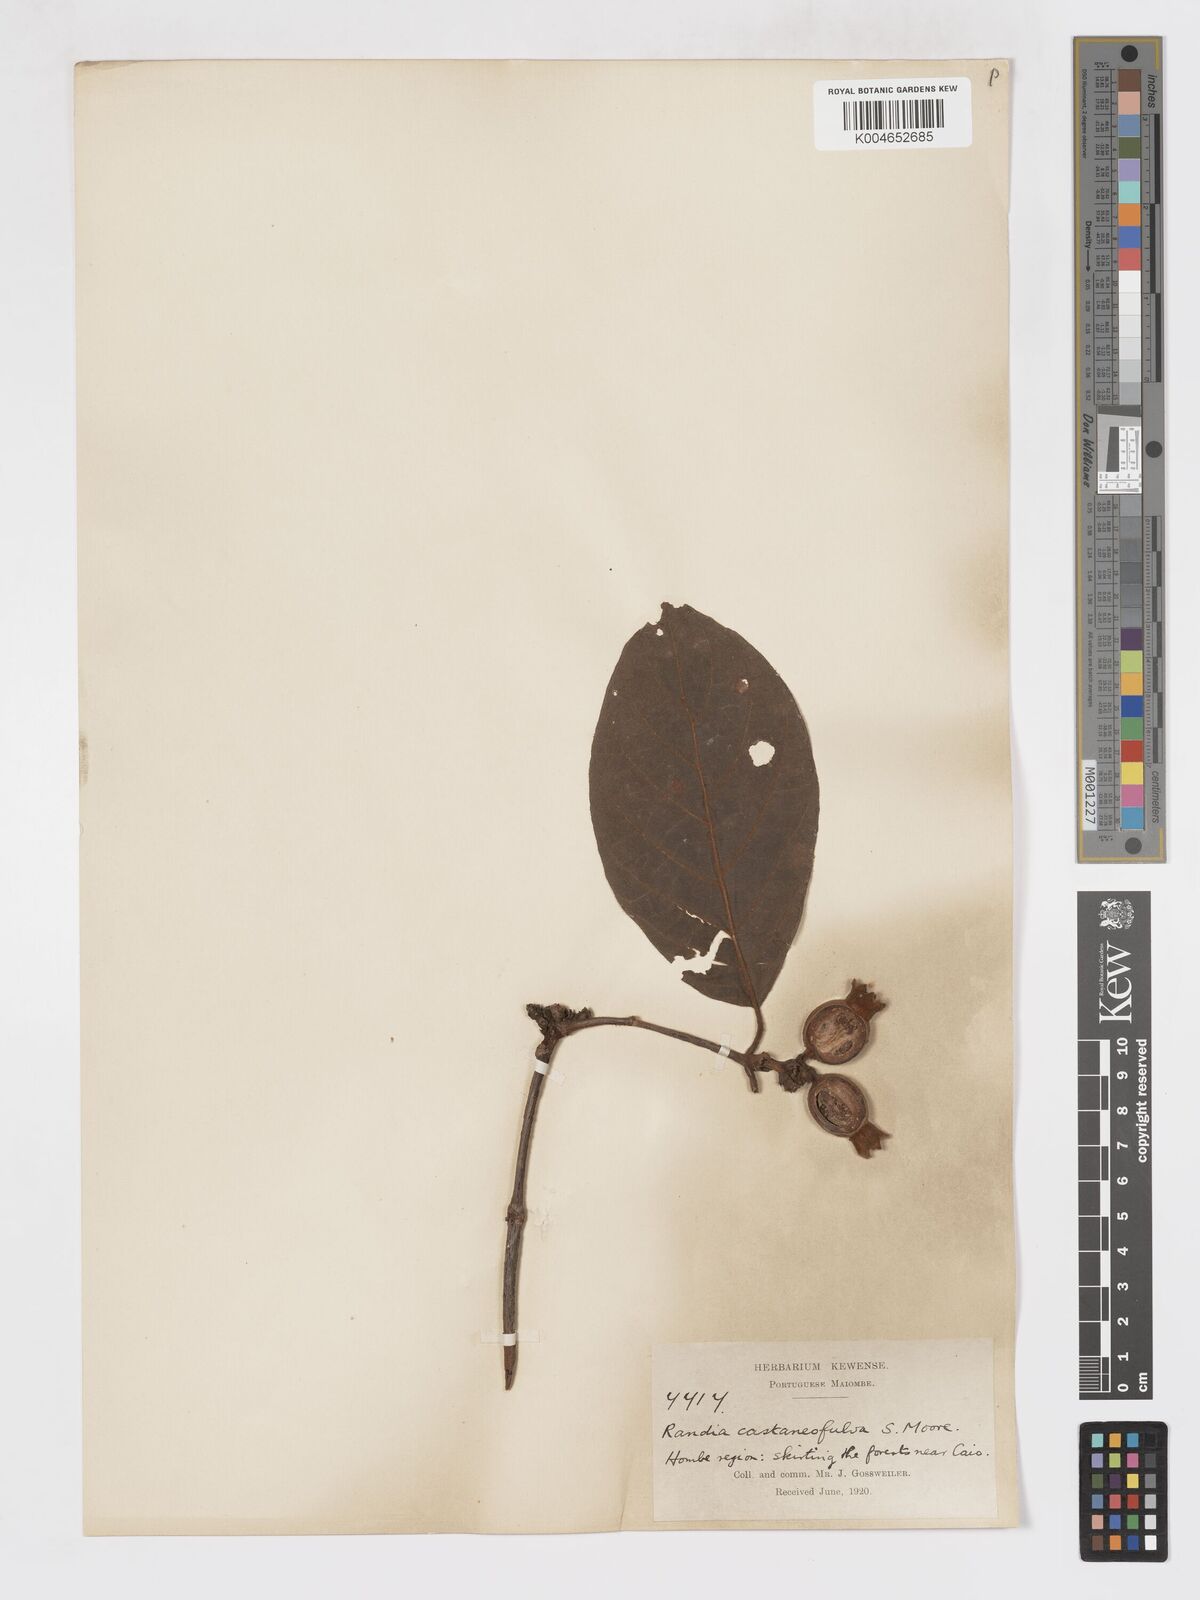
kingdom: Plantae
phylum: Tracheophyta
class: Magnoliopsida
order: Gentianales
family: Rubiaceae
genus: Aoranthe
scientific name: Aoranthe castaneofulva
